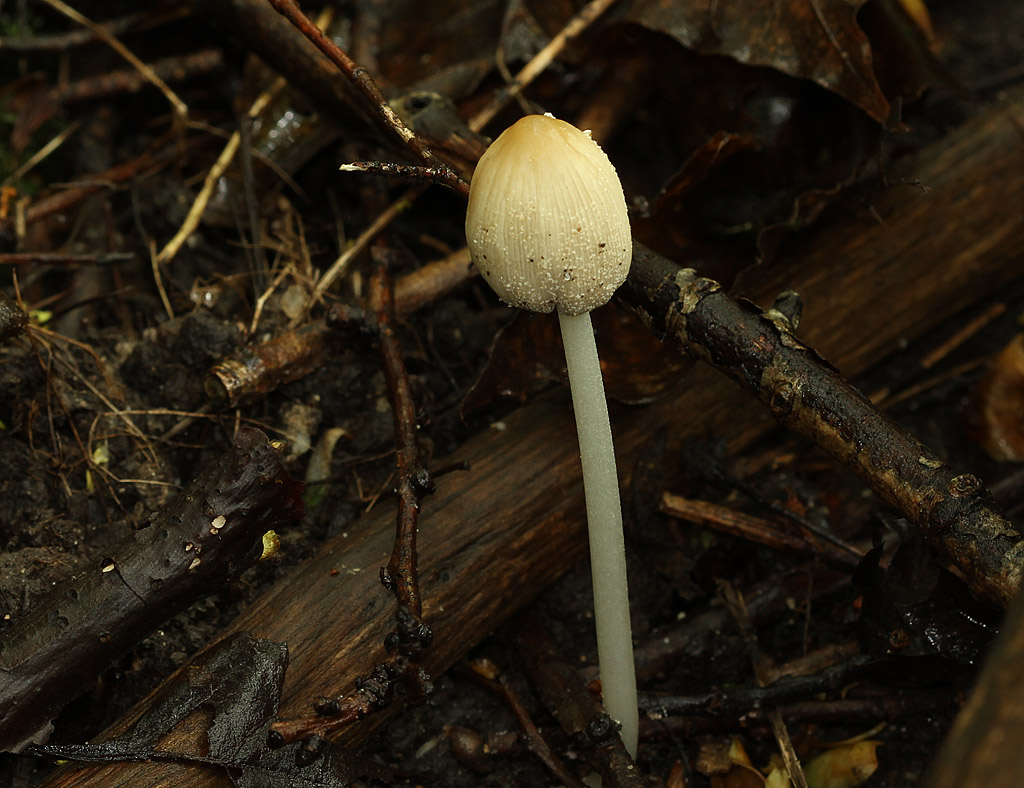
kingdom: Fungi
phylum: Basidiomycota
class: Agaricomycetes
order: Agaricales
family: Psathyrellaceae
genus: Coprinellus
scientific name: Coprinellus xanthothrix
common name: gultrådet blækhat
